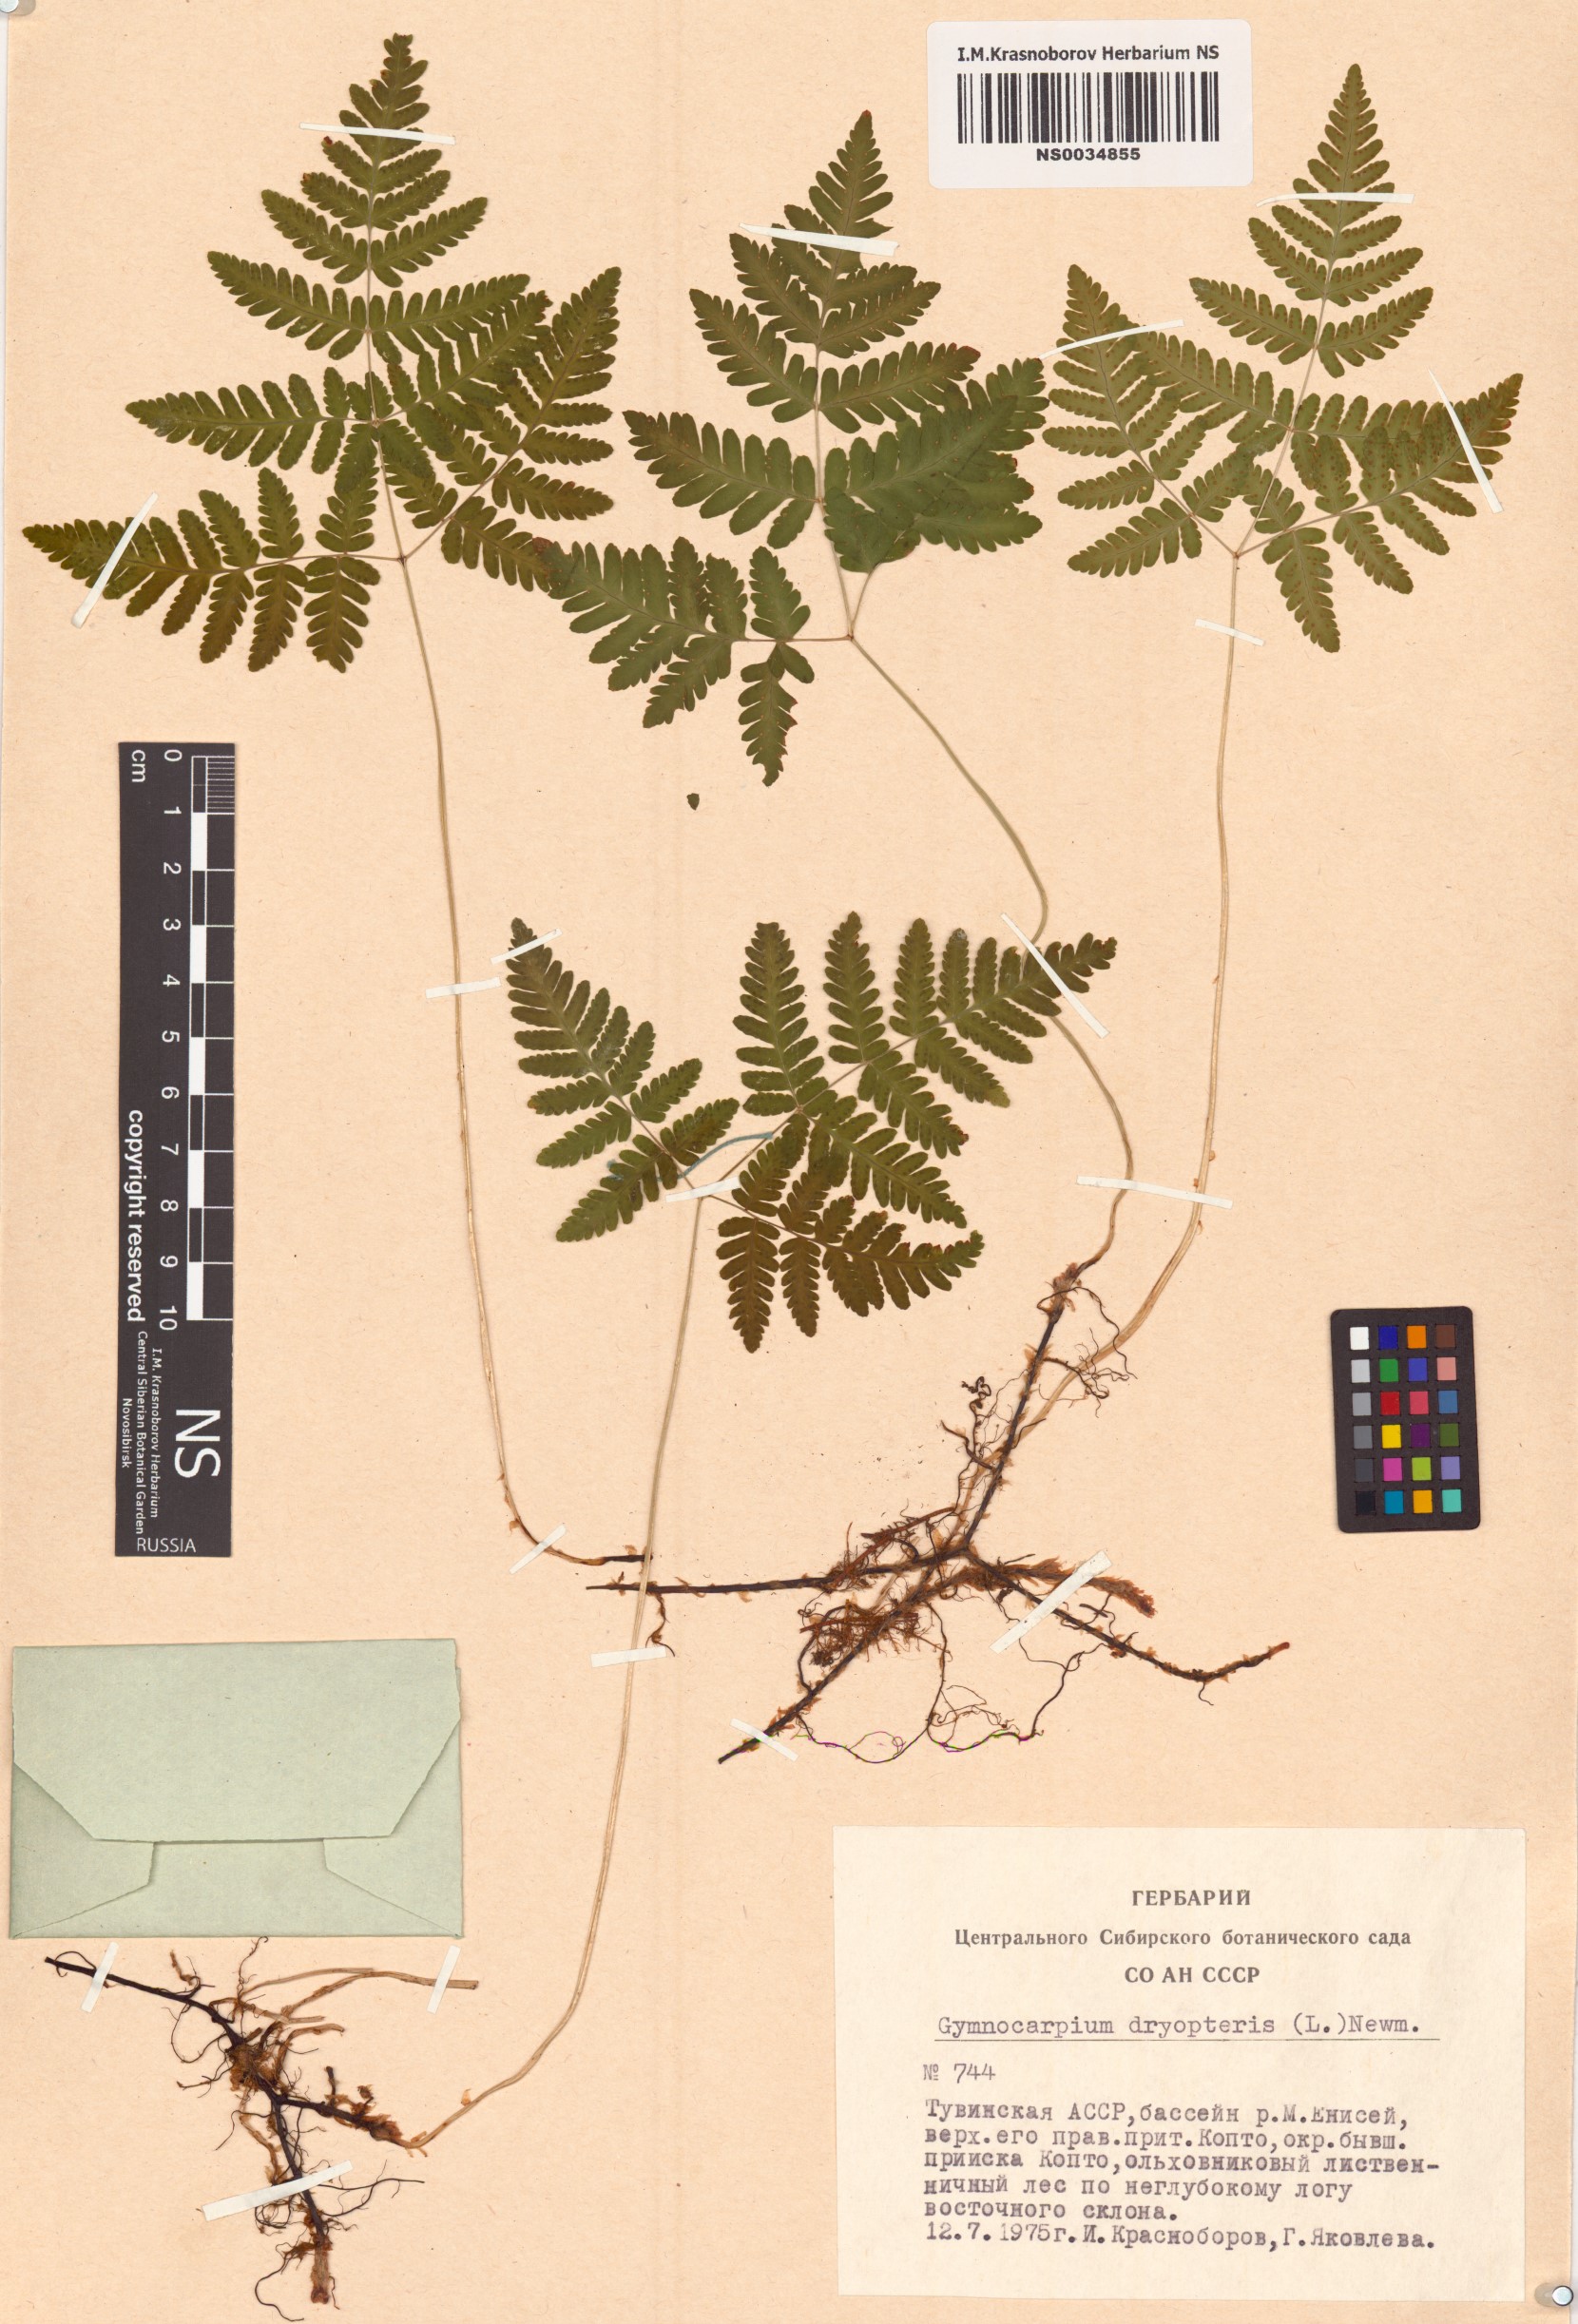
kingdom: Plantae
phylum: Tracheophyta
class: Polypodiopsida
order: Polypodiales
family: Cystopteridaceae
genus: Gymnocarpium
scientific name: Gymnocarpium dryopteris
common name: Oak fern
